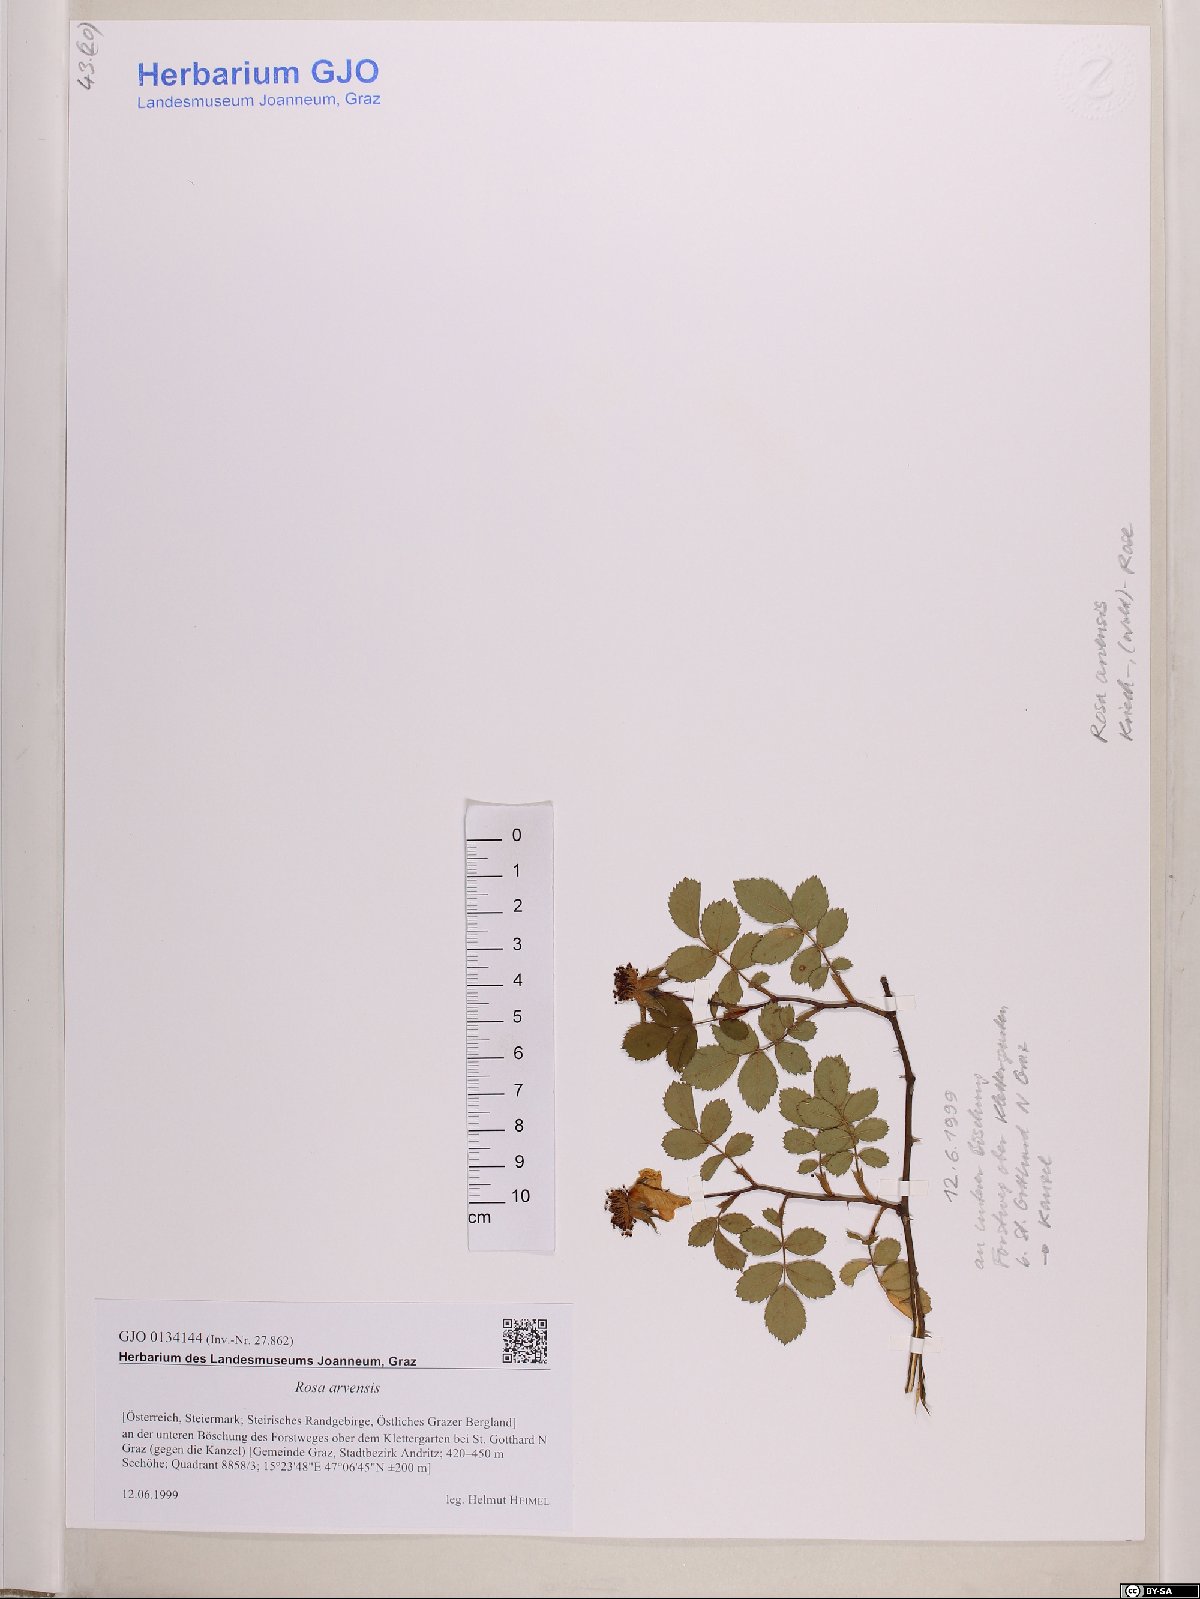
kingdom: Plantae
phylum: Tracheophyta
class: Magnoliopsida
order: Rosales
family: Rosaceae
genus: Rosa
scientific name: Rosa arvensis
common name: Field rose
